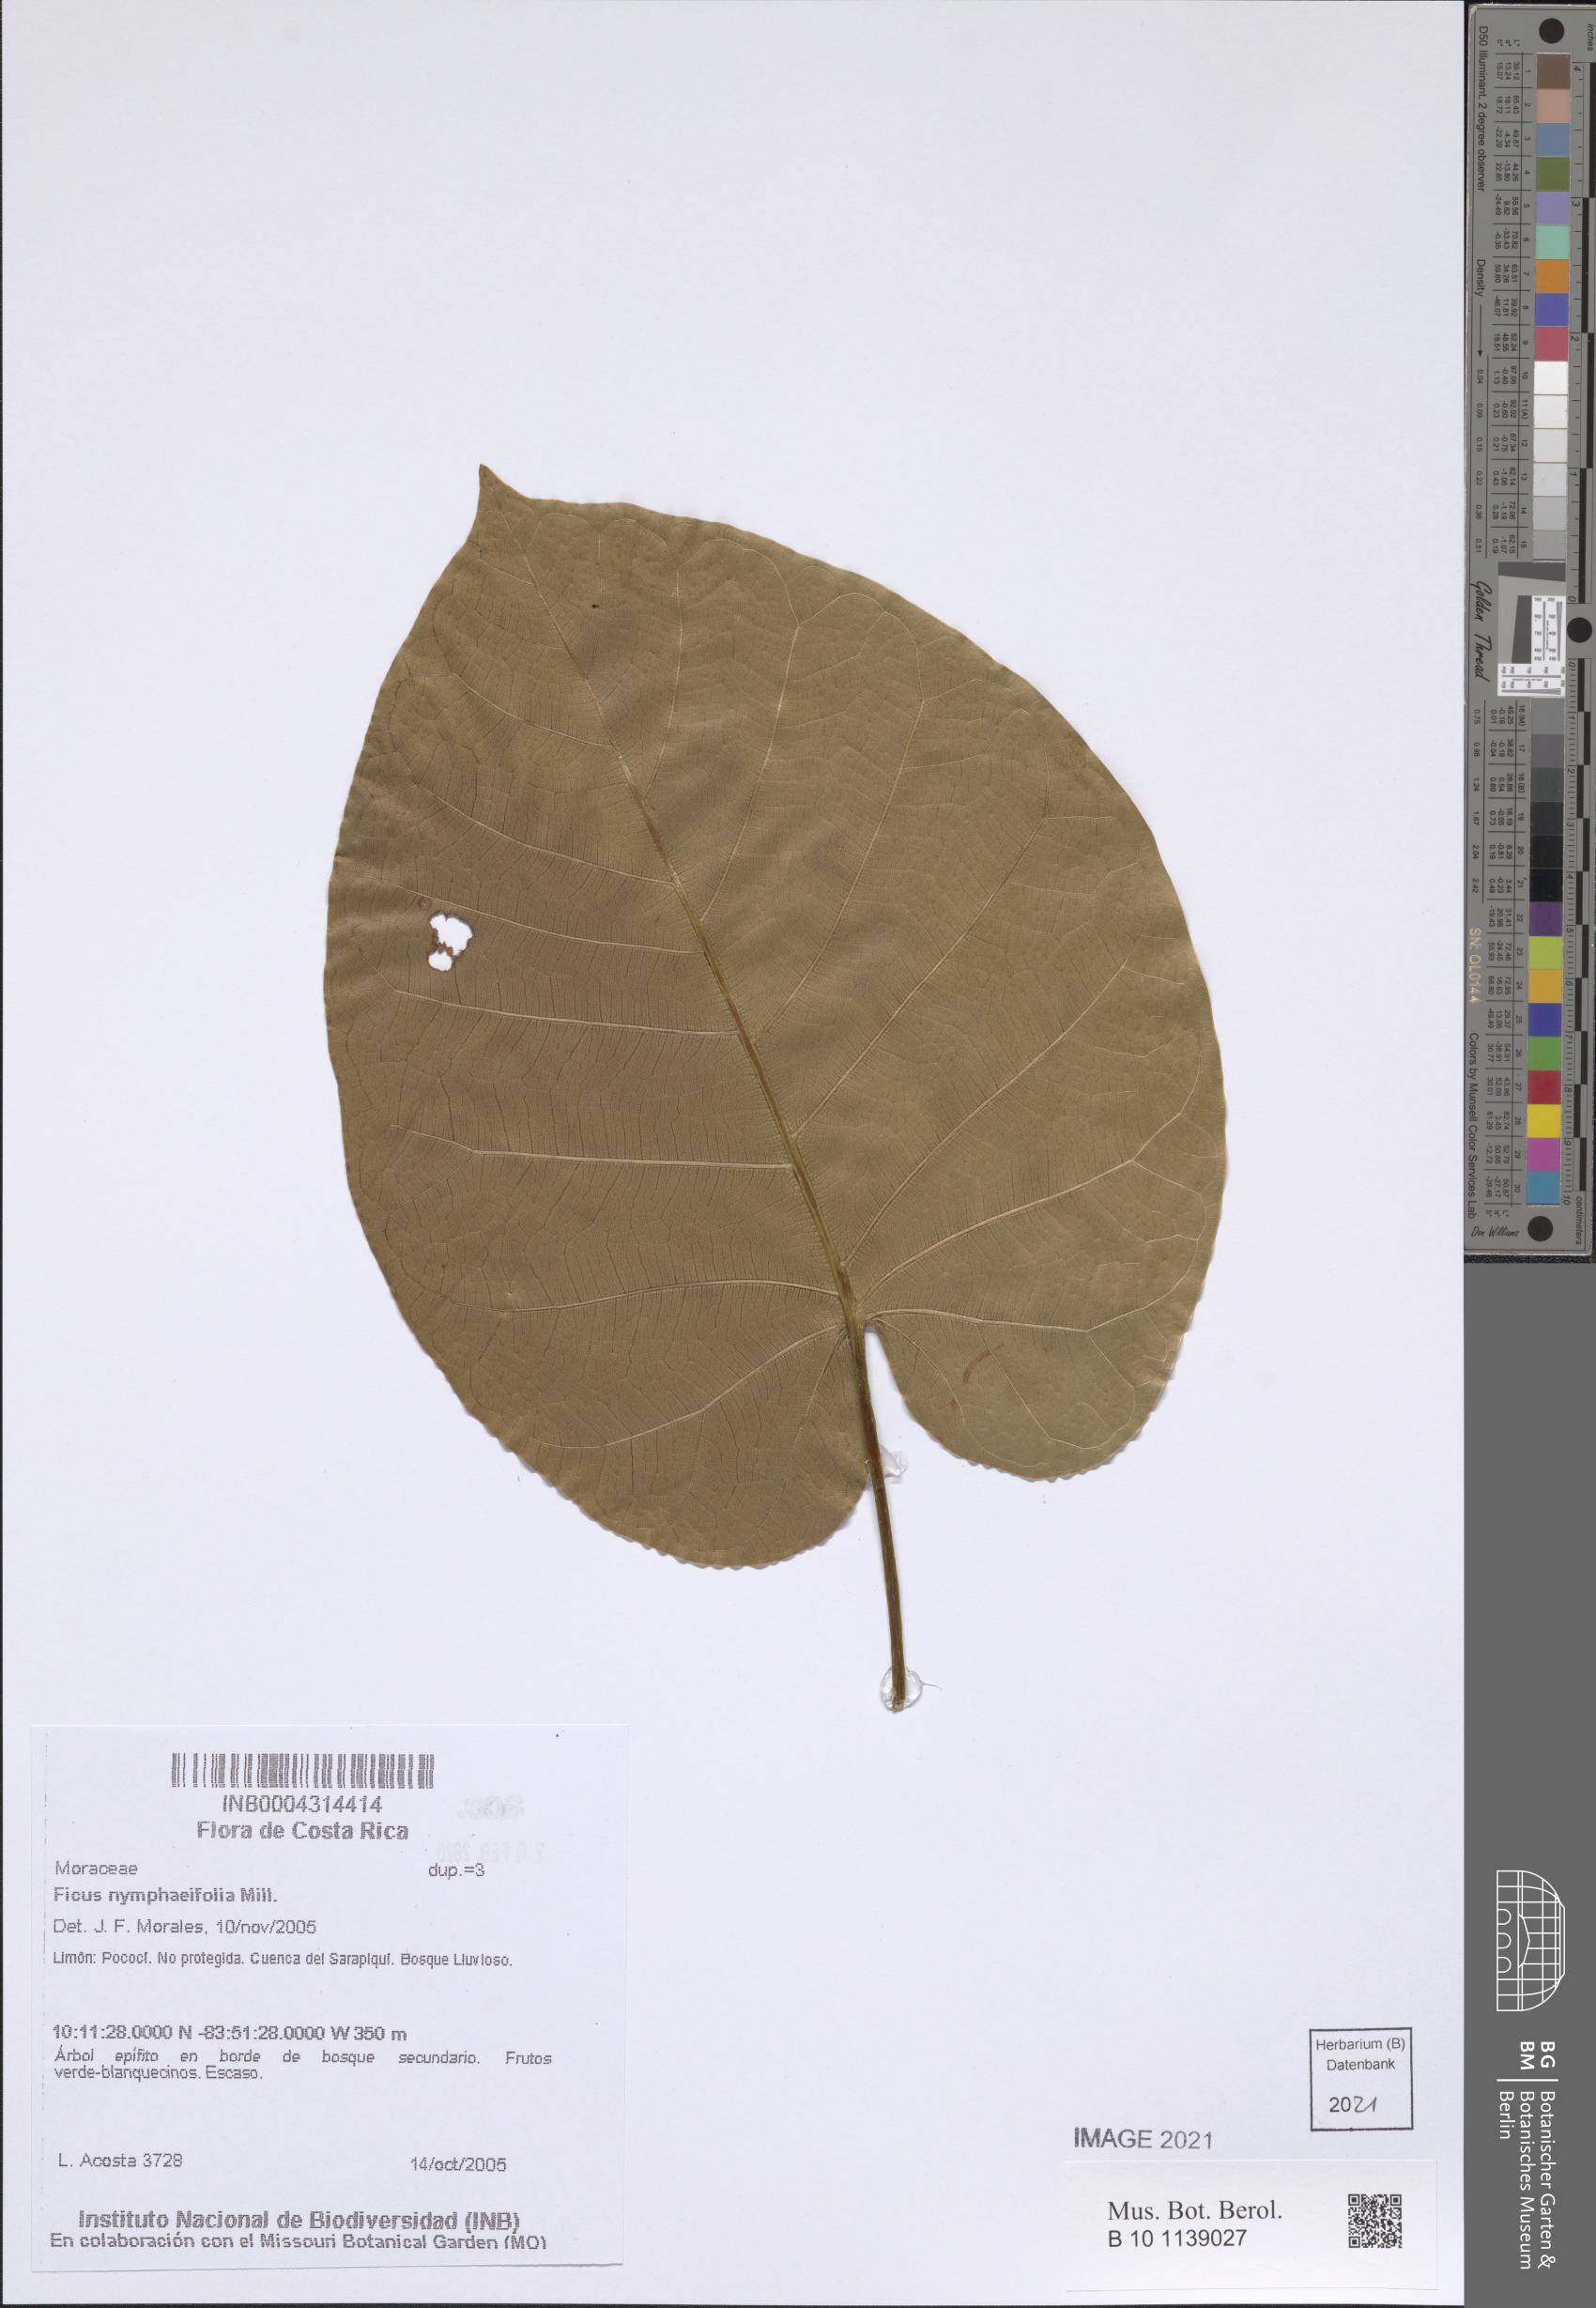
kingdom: Plantae
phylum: Tracheophyta
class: Magnoliopsida
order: Rosales
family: Moraceae
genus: Ficus
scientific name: Ficus nymphaeifolia
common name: Fig
